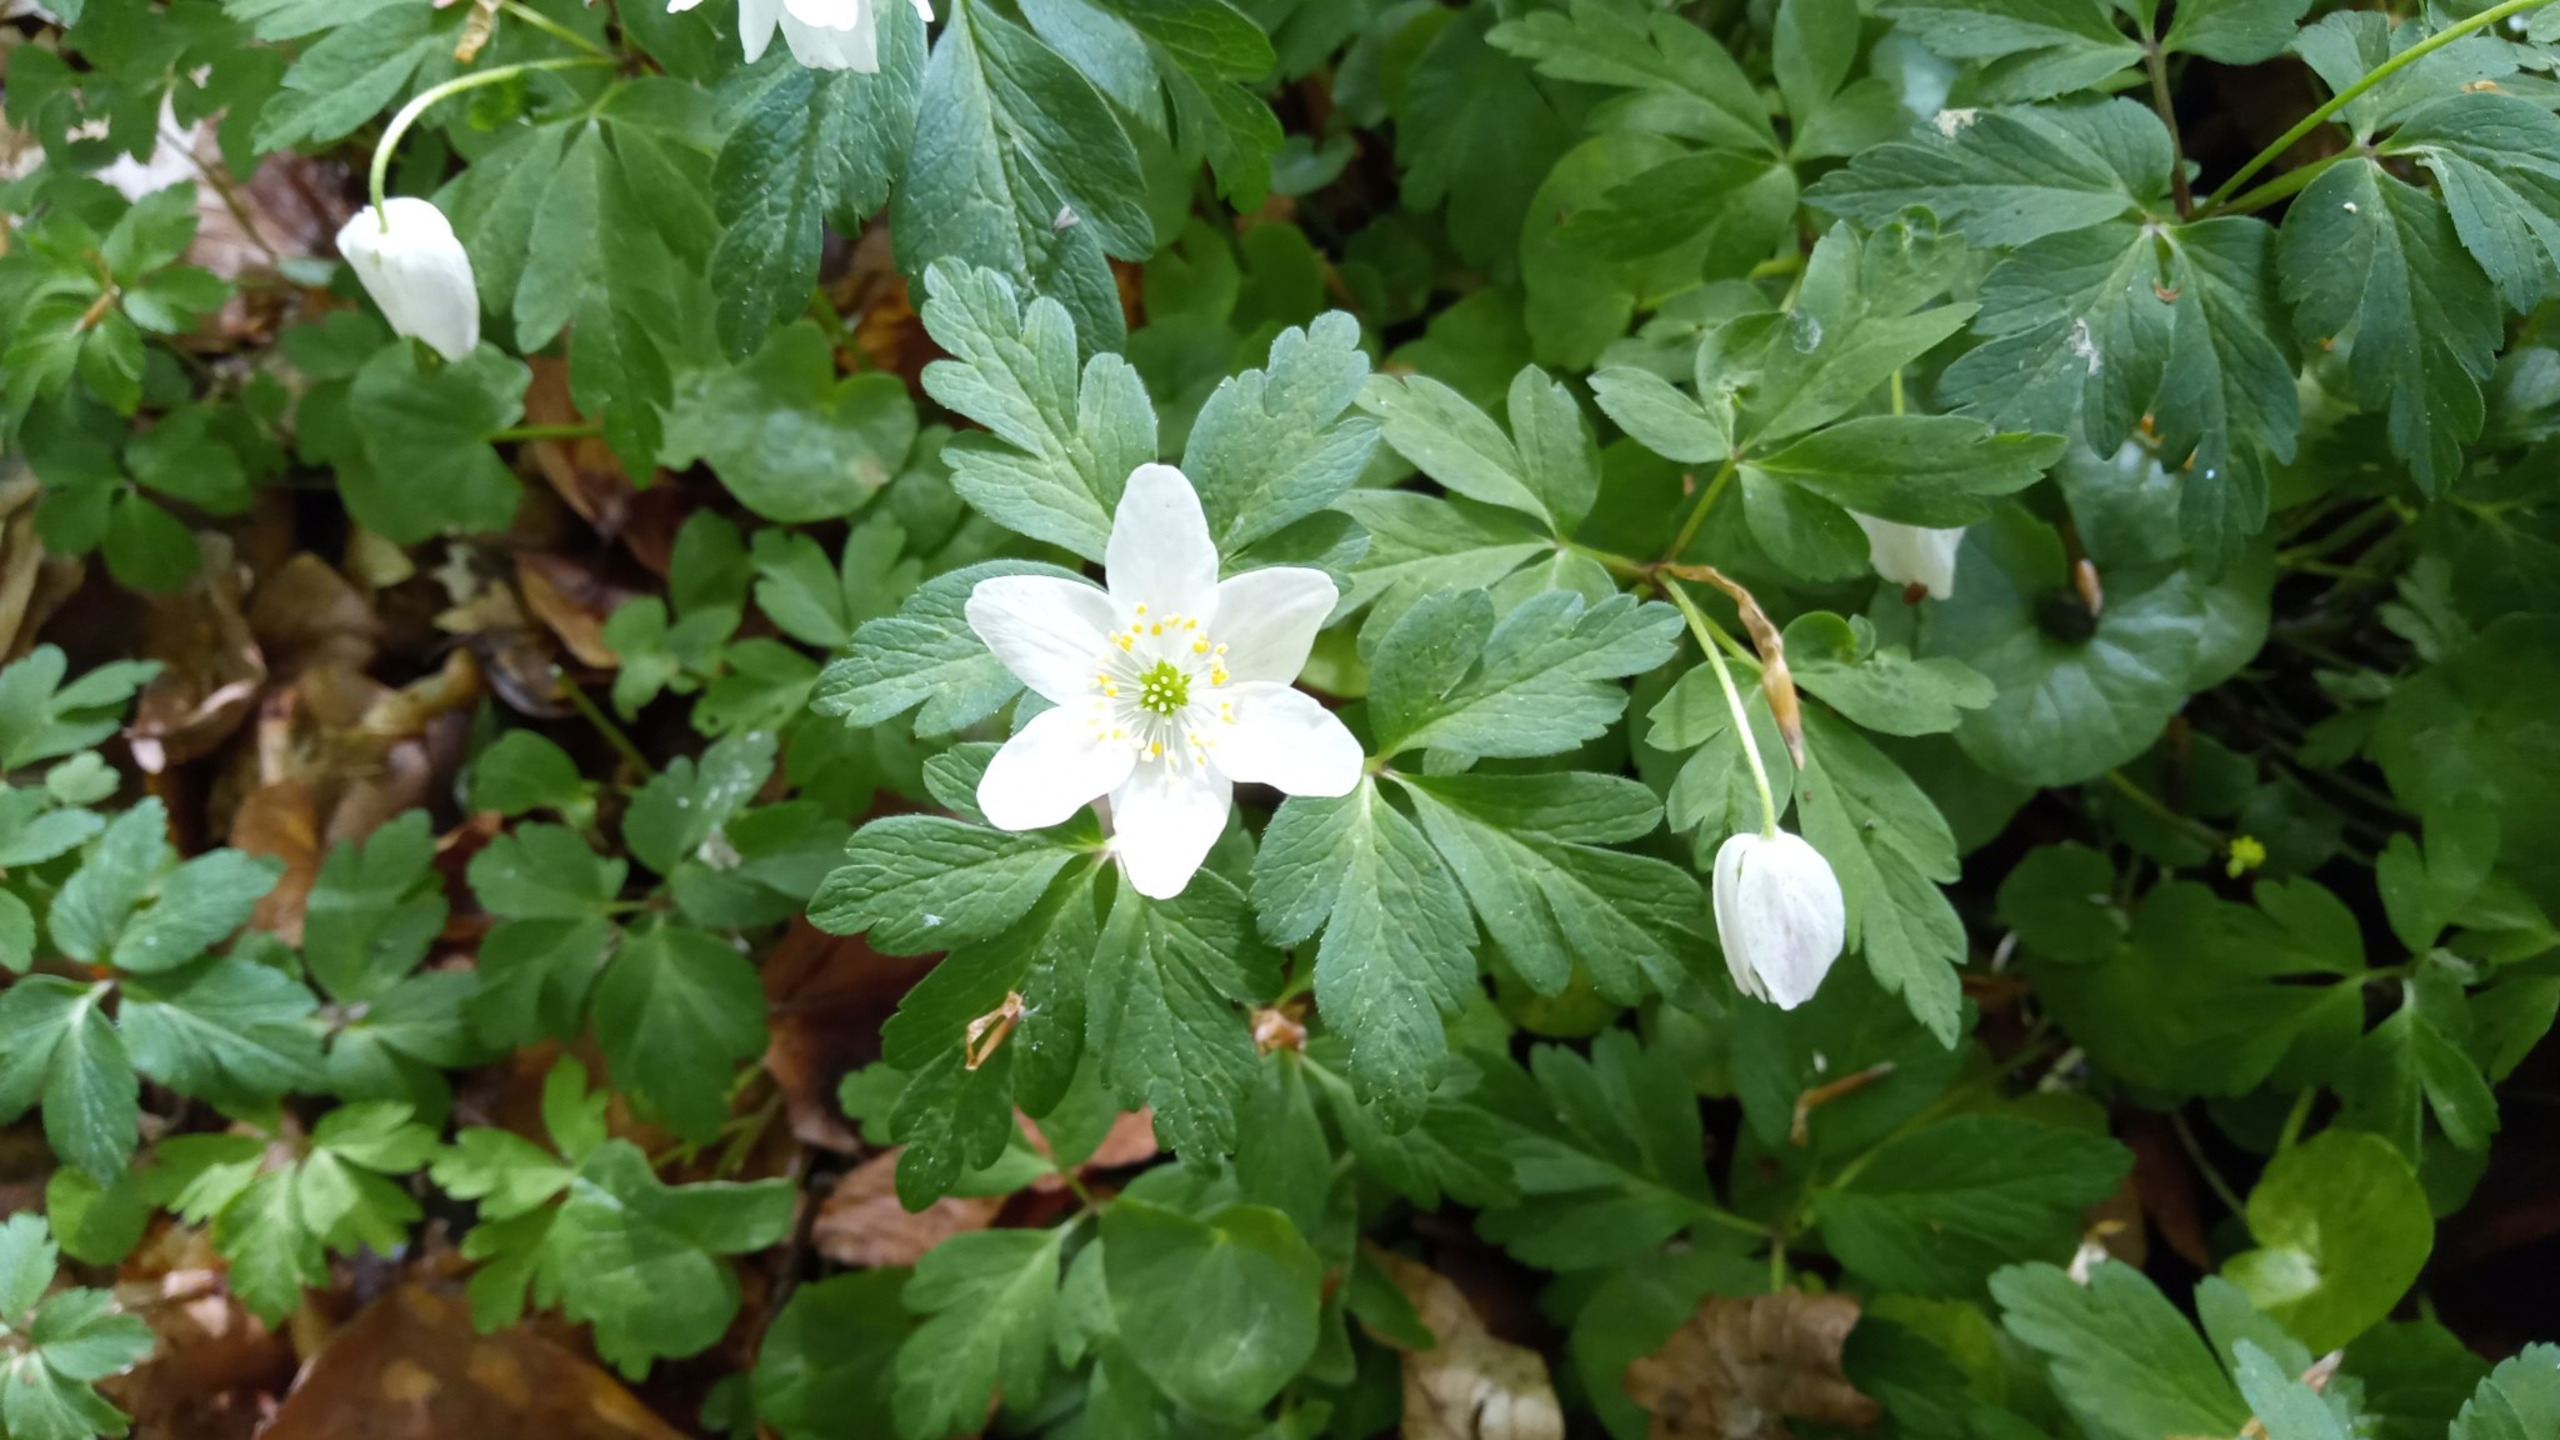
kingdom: Plantae
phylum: Tracheophyta
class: Magnoliopsida
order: Ranunculales
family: Ranunculaceae
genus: Anemone
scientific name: Anemone nemorosa
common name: Hvid anemone
